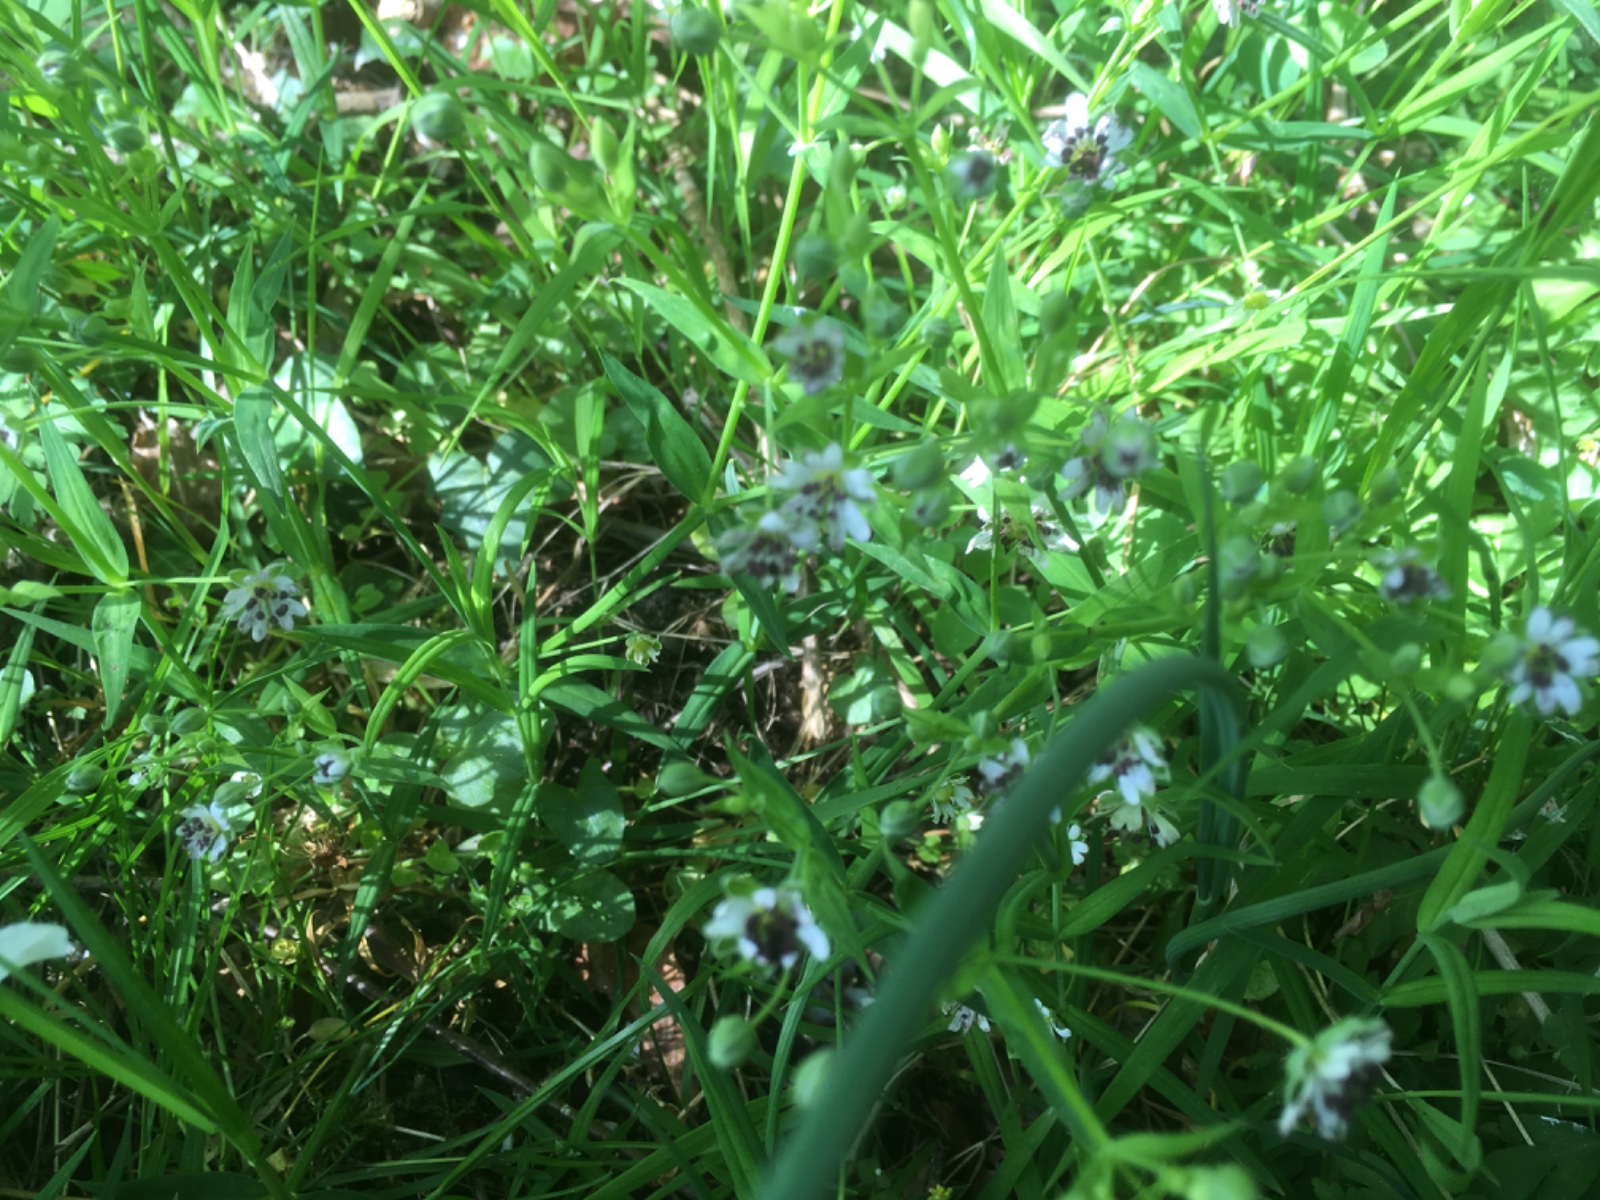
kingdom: Fungi
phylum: Basidiomycota
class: Microbotryomycetes
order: Microbotryales
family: Microbotryaceae
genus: Microbotryum
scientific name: Microbotryum stellariae
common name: fladstjerne-støvbladrust
